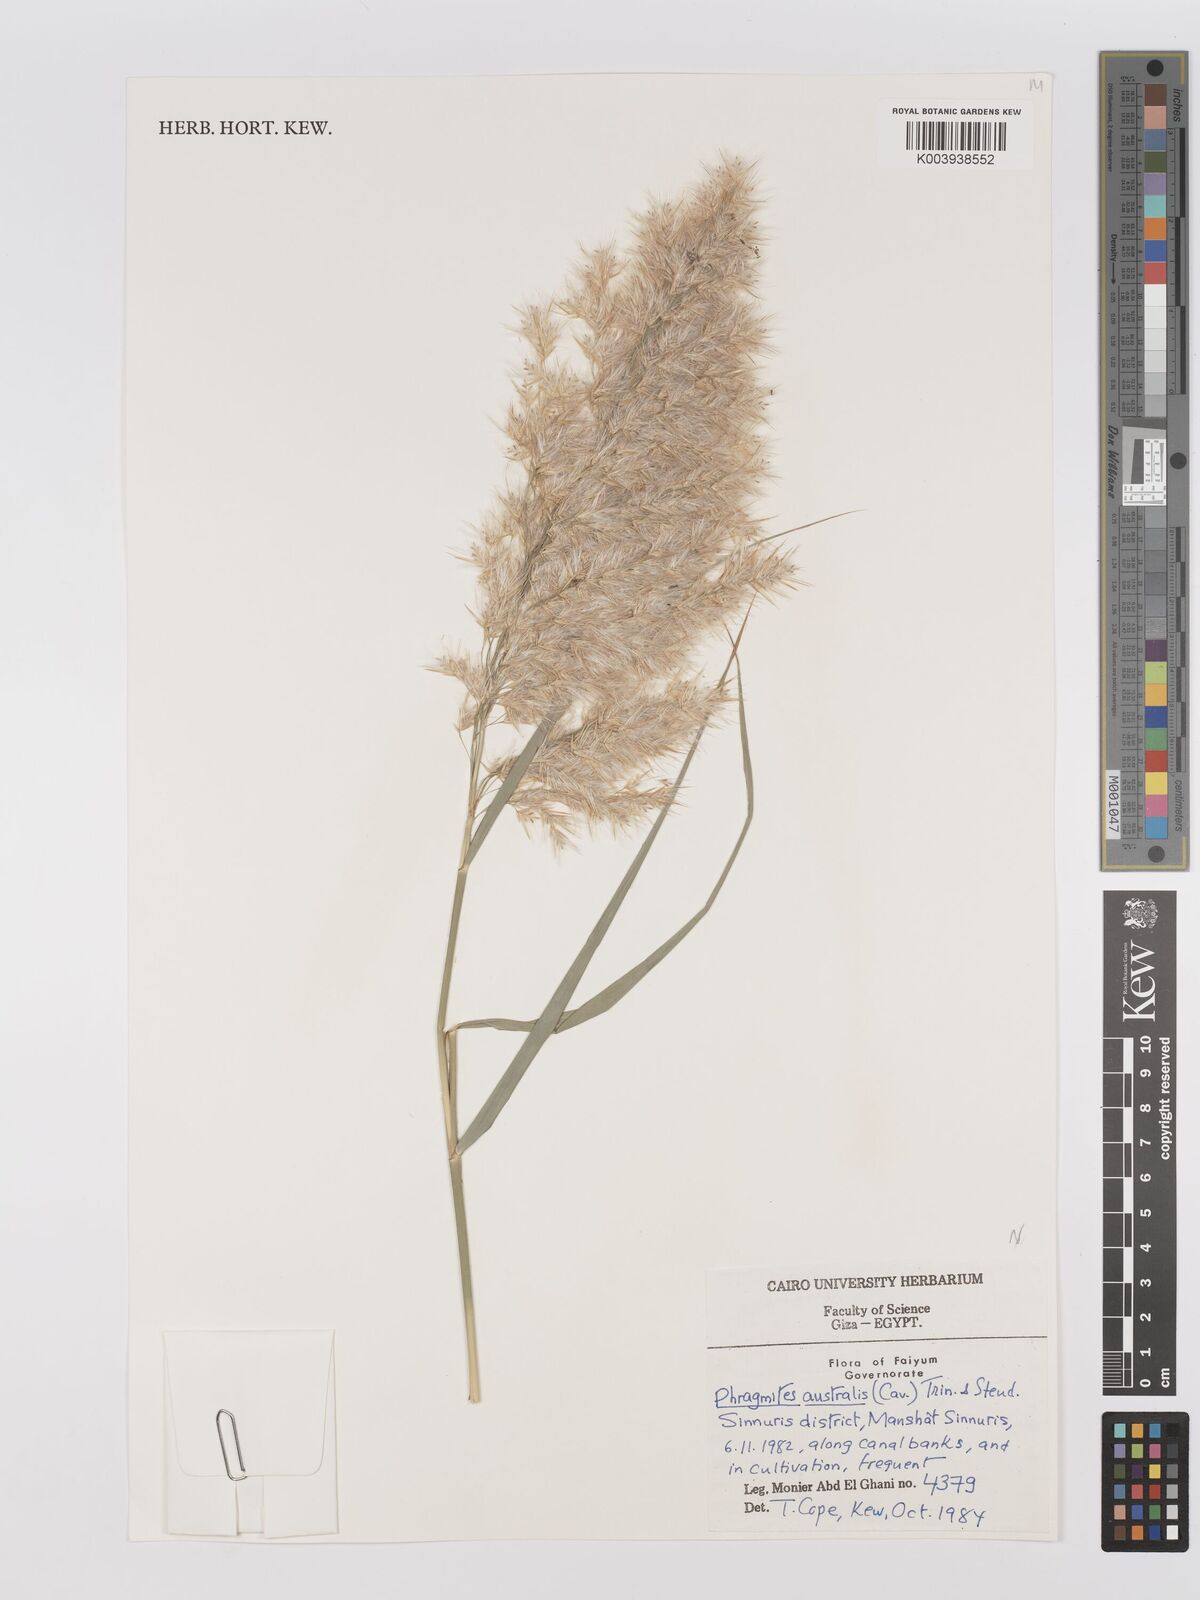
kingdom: Plantae
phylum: Tracheophyta
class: Liliopsida
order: Poales
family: Poaceae
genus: Phragmites
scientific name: Phragmites australis
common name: Common reed
